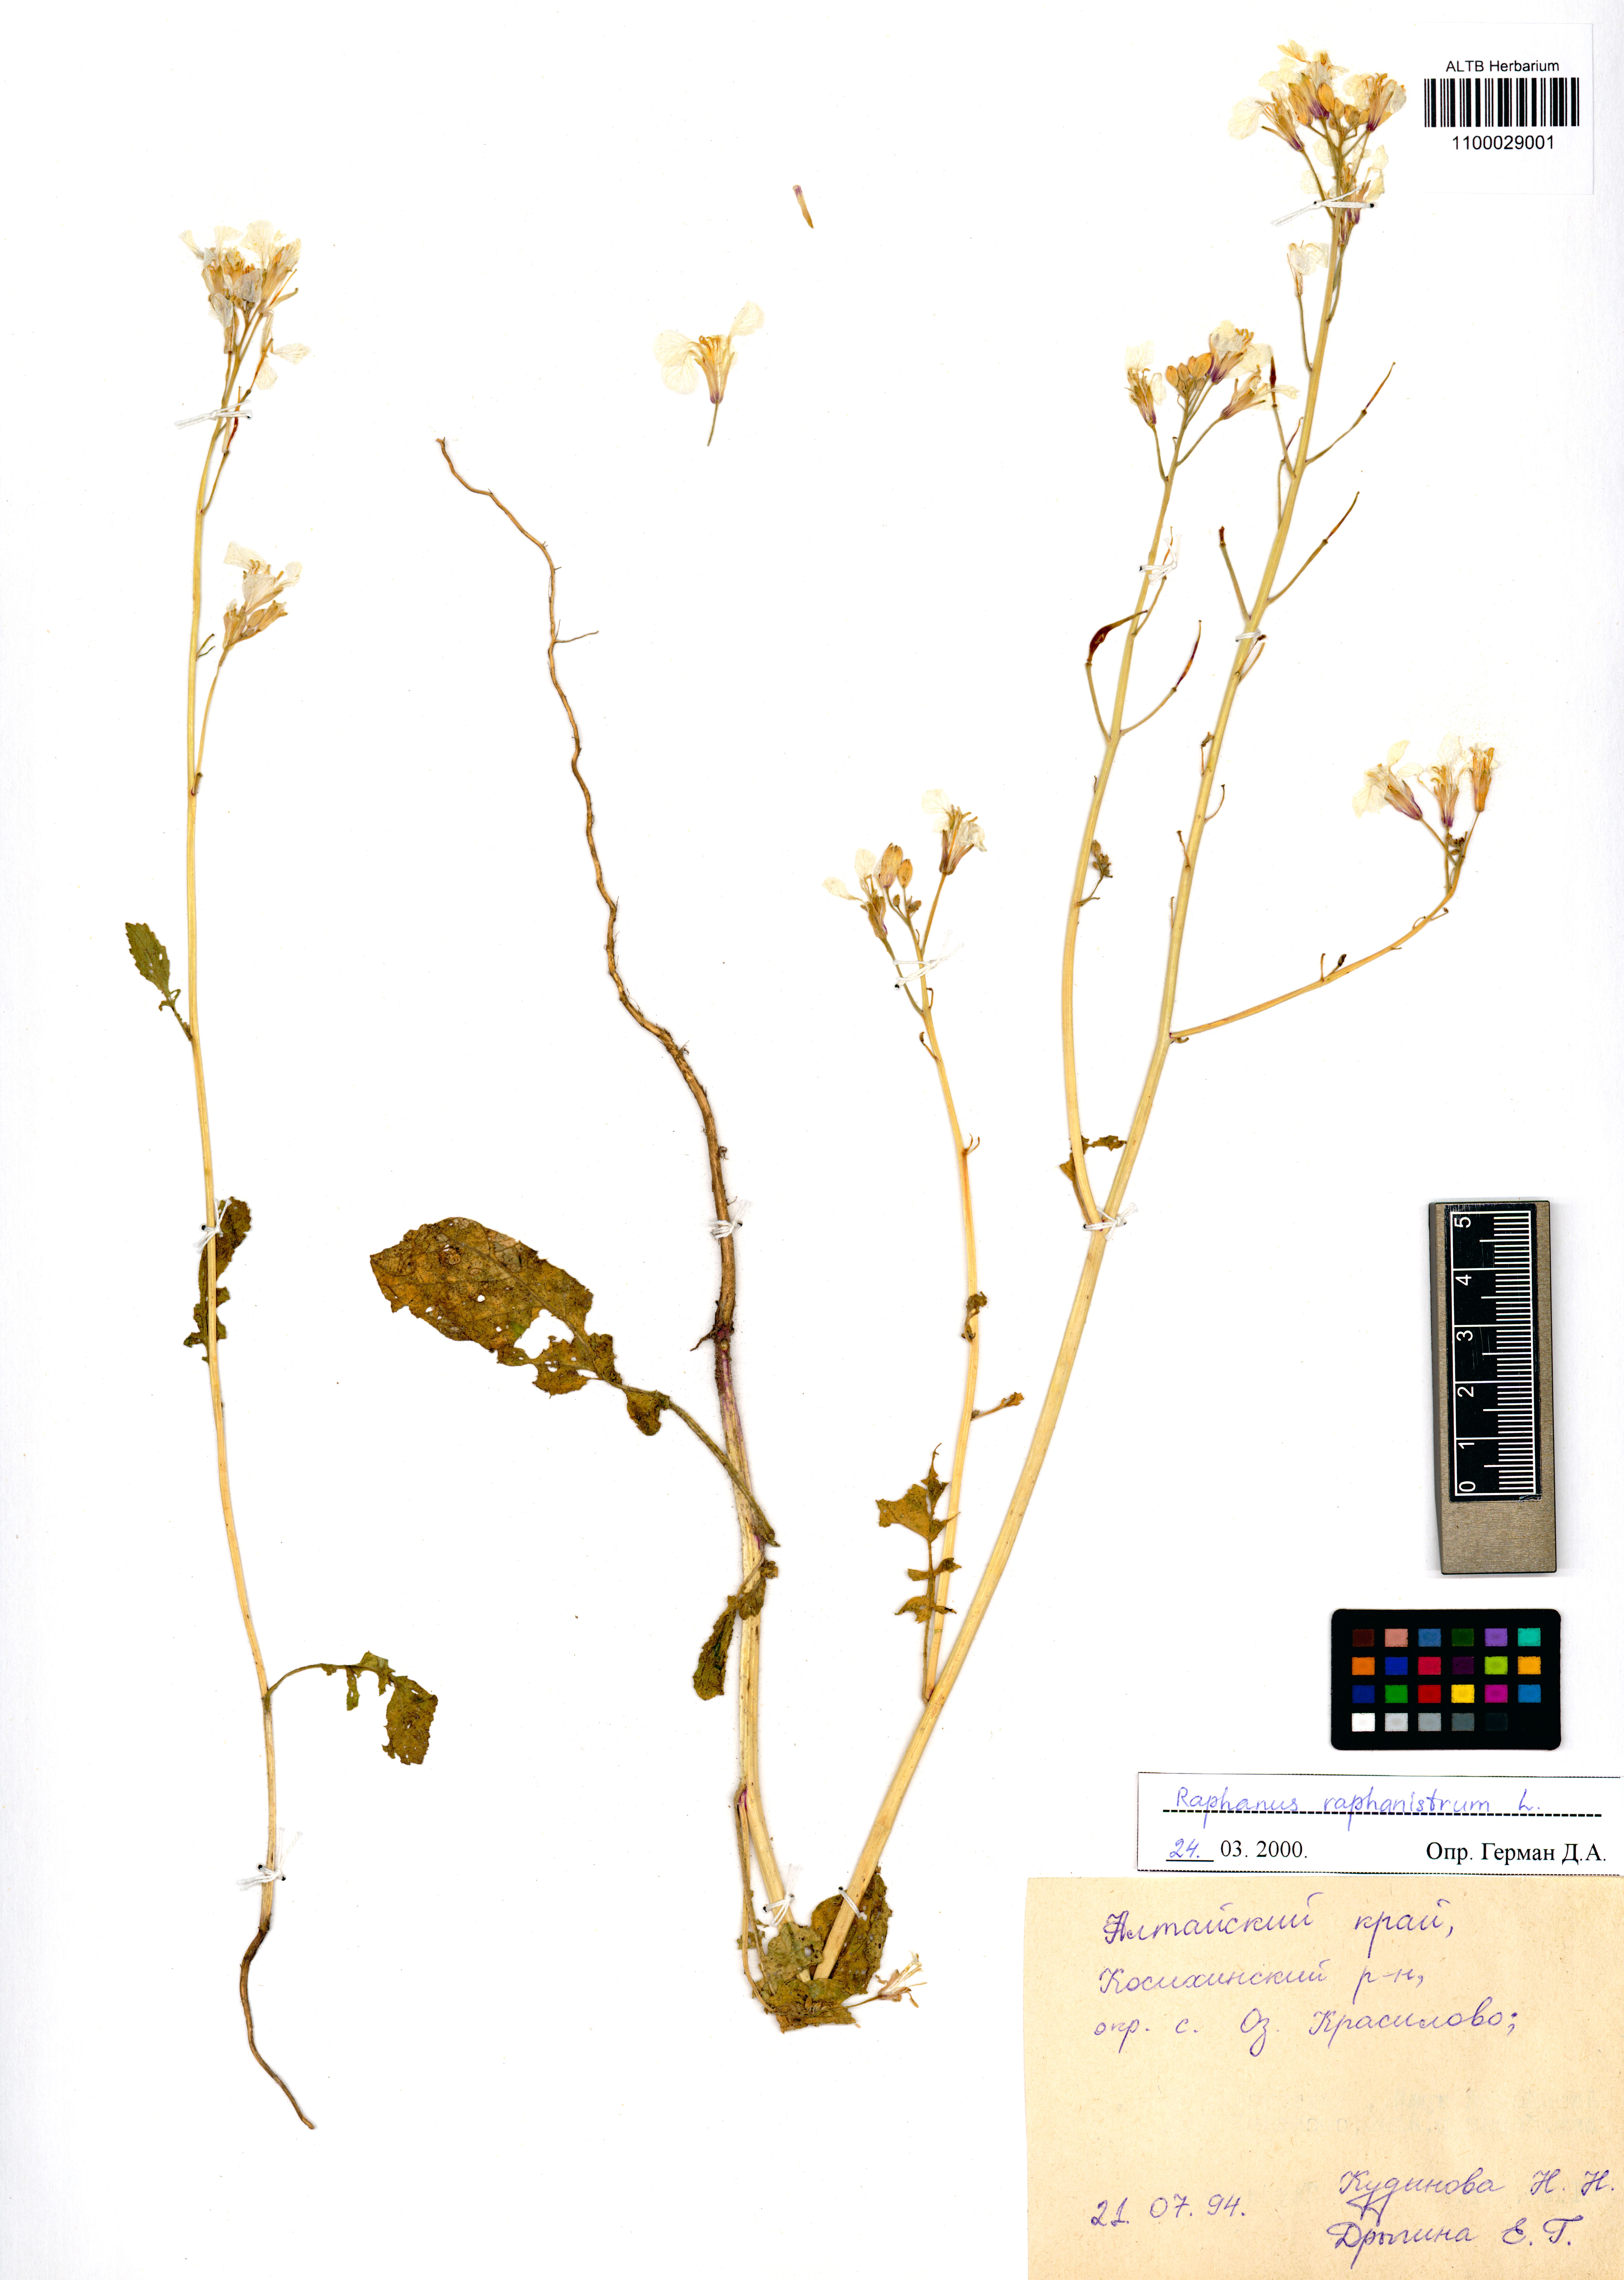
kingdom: Plantae
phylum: Tracheophyta
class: Magnoliopsida
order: Brassicales
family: Brassicaceae
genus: Raphanus
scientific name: Raphanus raphanistrum
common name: Wild radish
